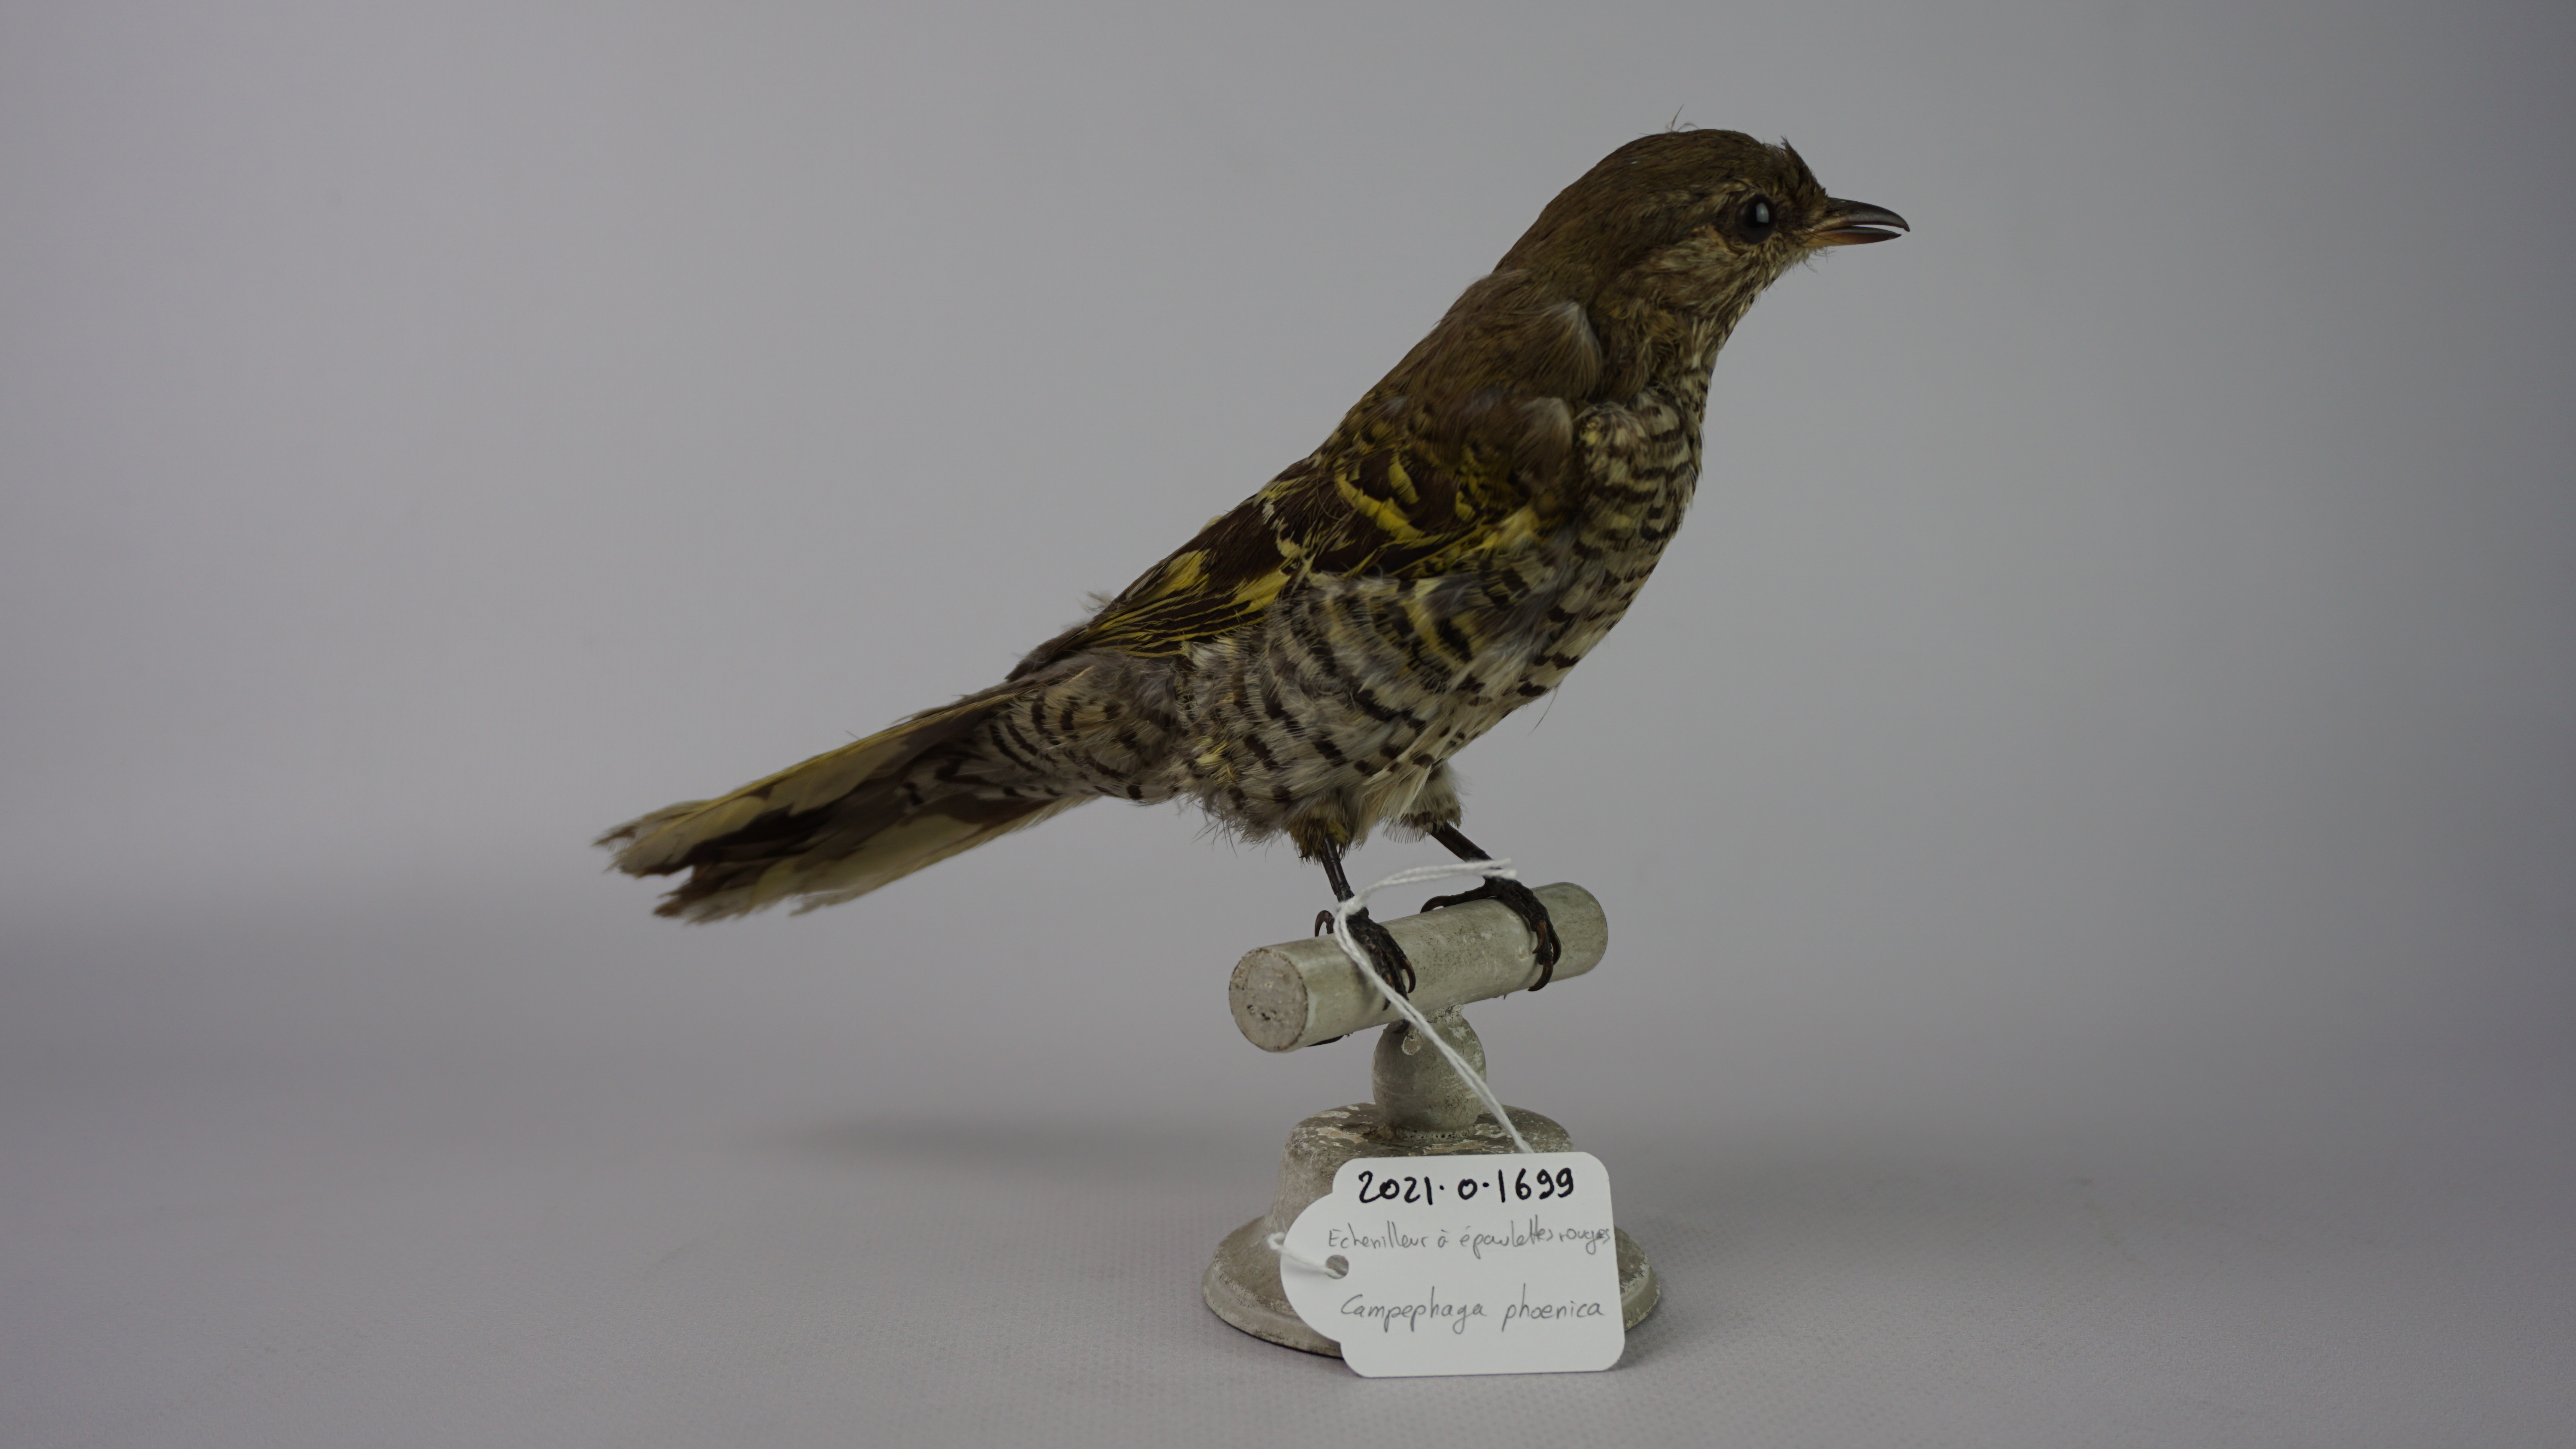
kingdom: Animalia
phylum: Chordata
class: Aves
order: Passeriformes
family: Campephagidae
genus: Campephaga
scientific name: Campephaga phoenicea
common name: Red-shouldered cuckooshrike
